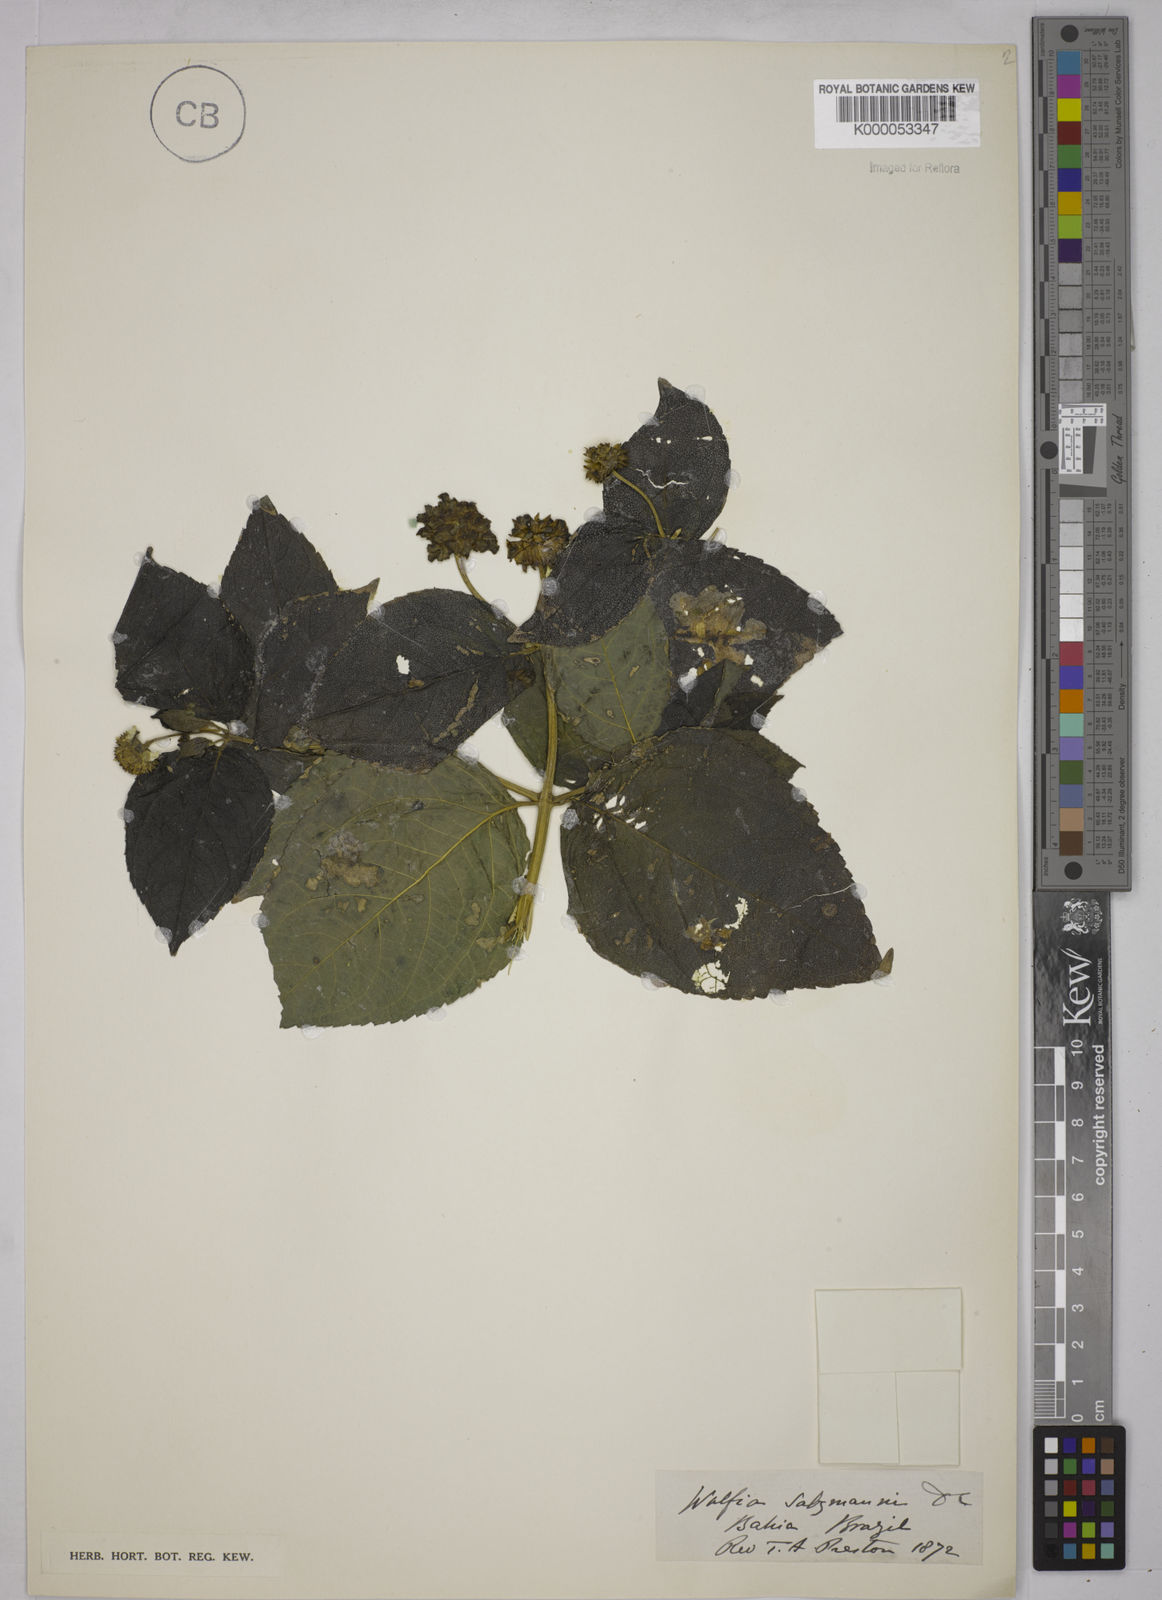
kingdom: Plantae
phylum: Tracheophyta
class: Magnoliopsida
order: Asterales
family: Asteraceae
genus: Tilesia
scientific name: Tilesia baccata
